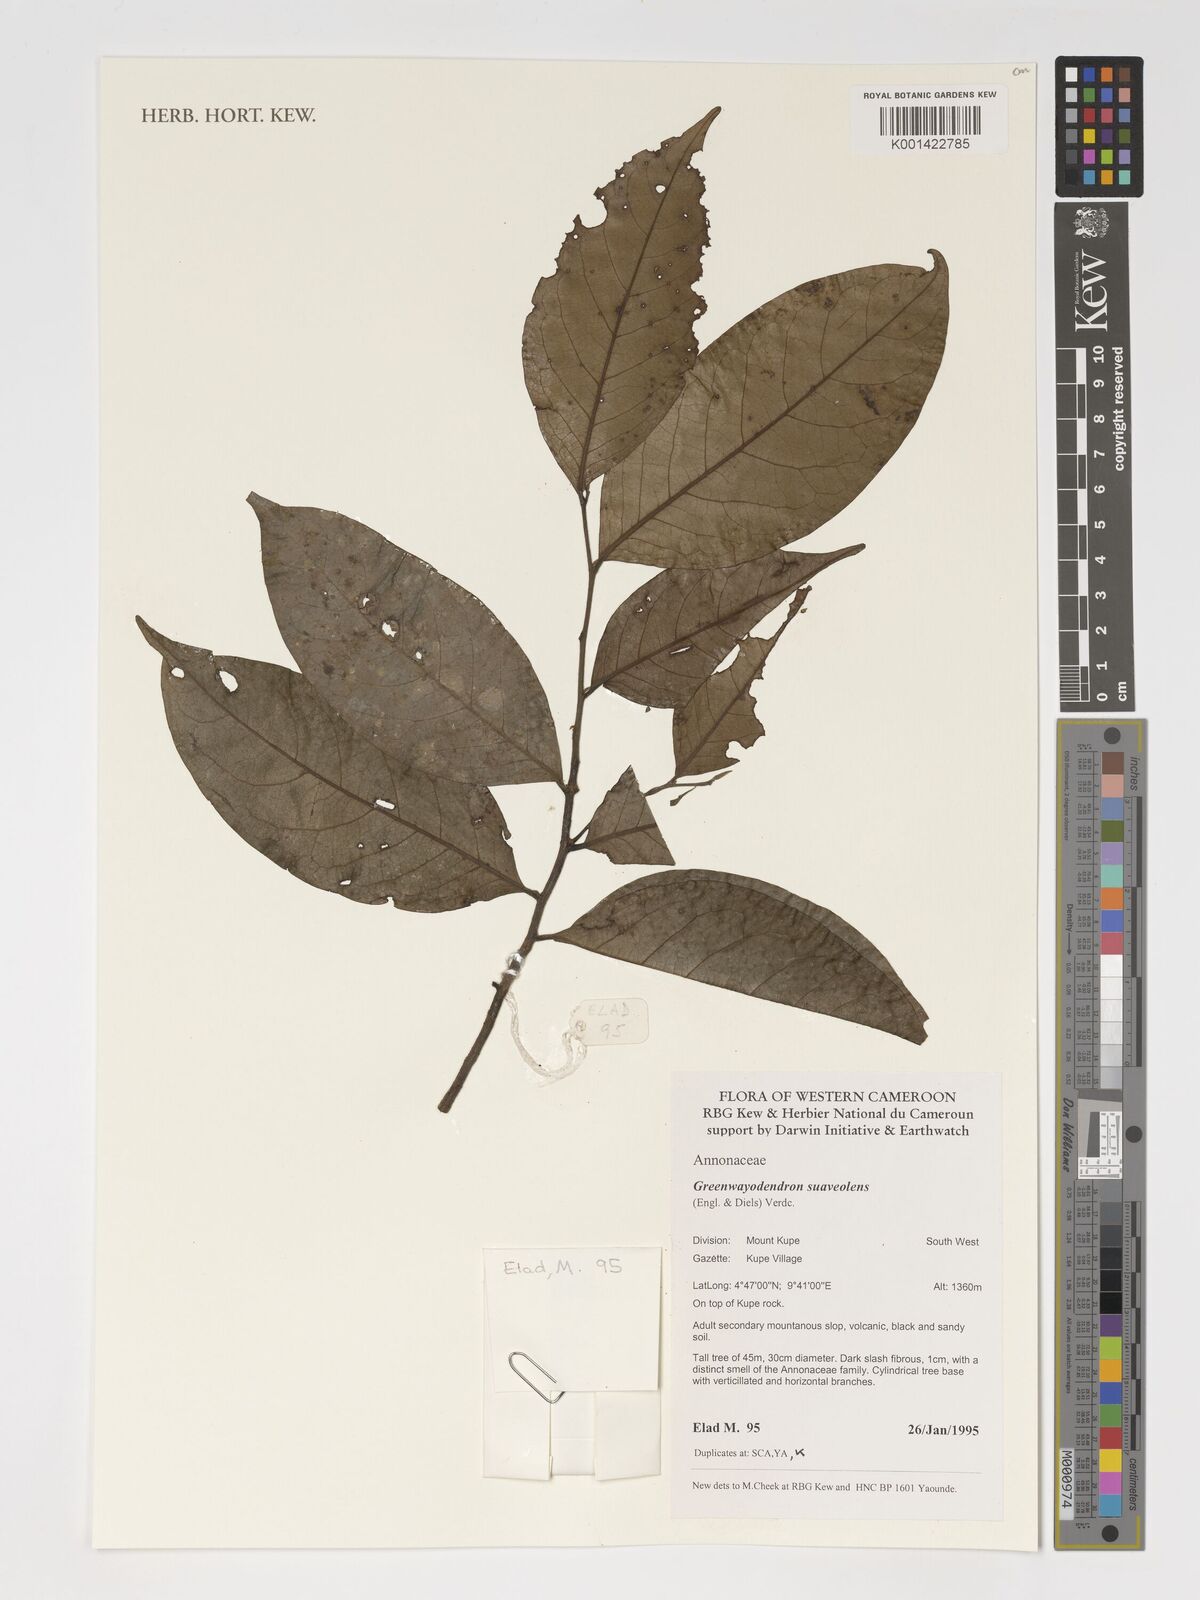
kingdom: Plantae
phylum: Tracheophyta
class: Magnoliopsida
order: Magnoliales
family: Annonaceae
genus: Greenwayodendron
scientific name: Greenwayodendron suaveolens
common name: Molinda
